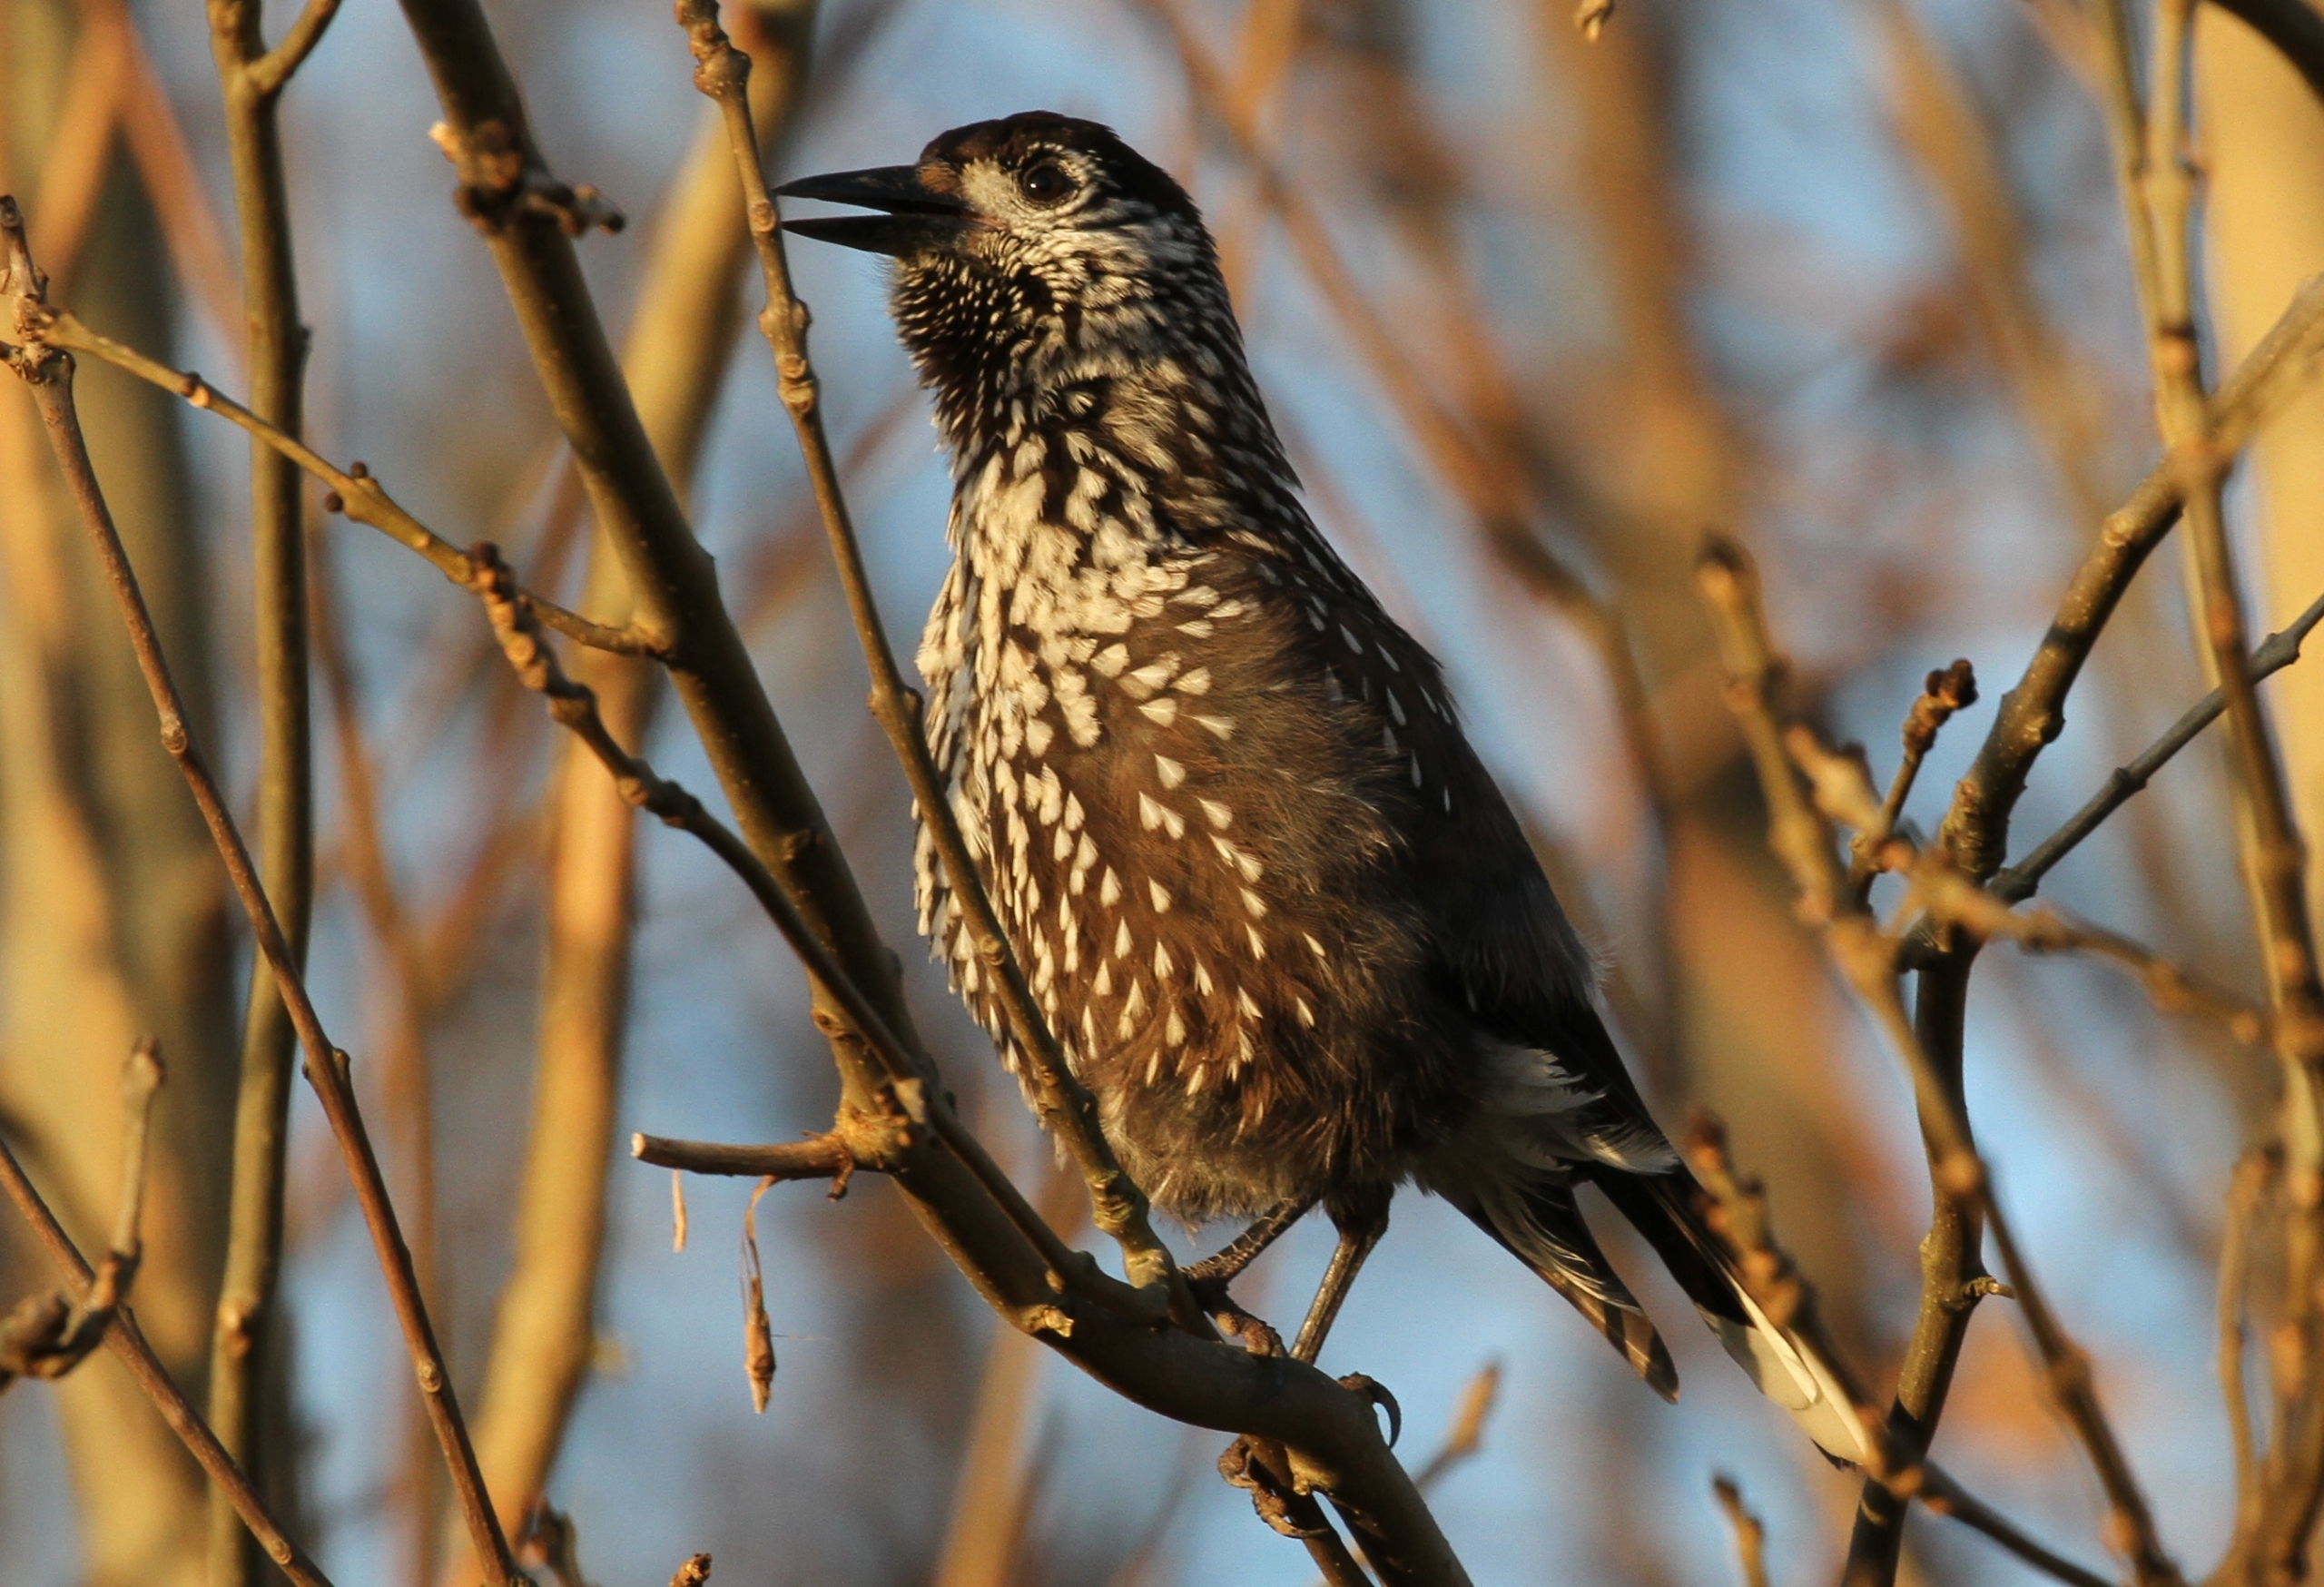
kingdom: Animalia
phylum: Chordata
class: Aves
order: Passeriformes
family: Corvidae
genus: Nucifraga
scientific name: Nucifraga caryocatactes
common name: Nøddekrige
